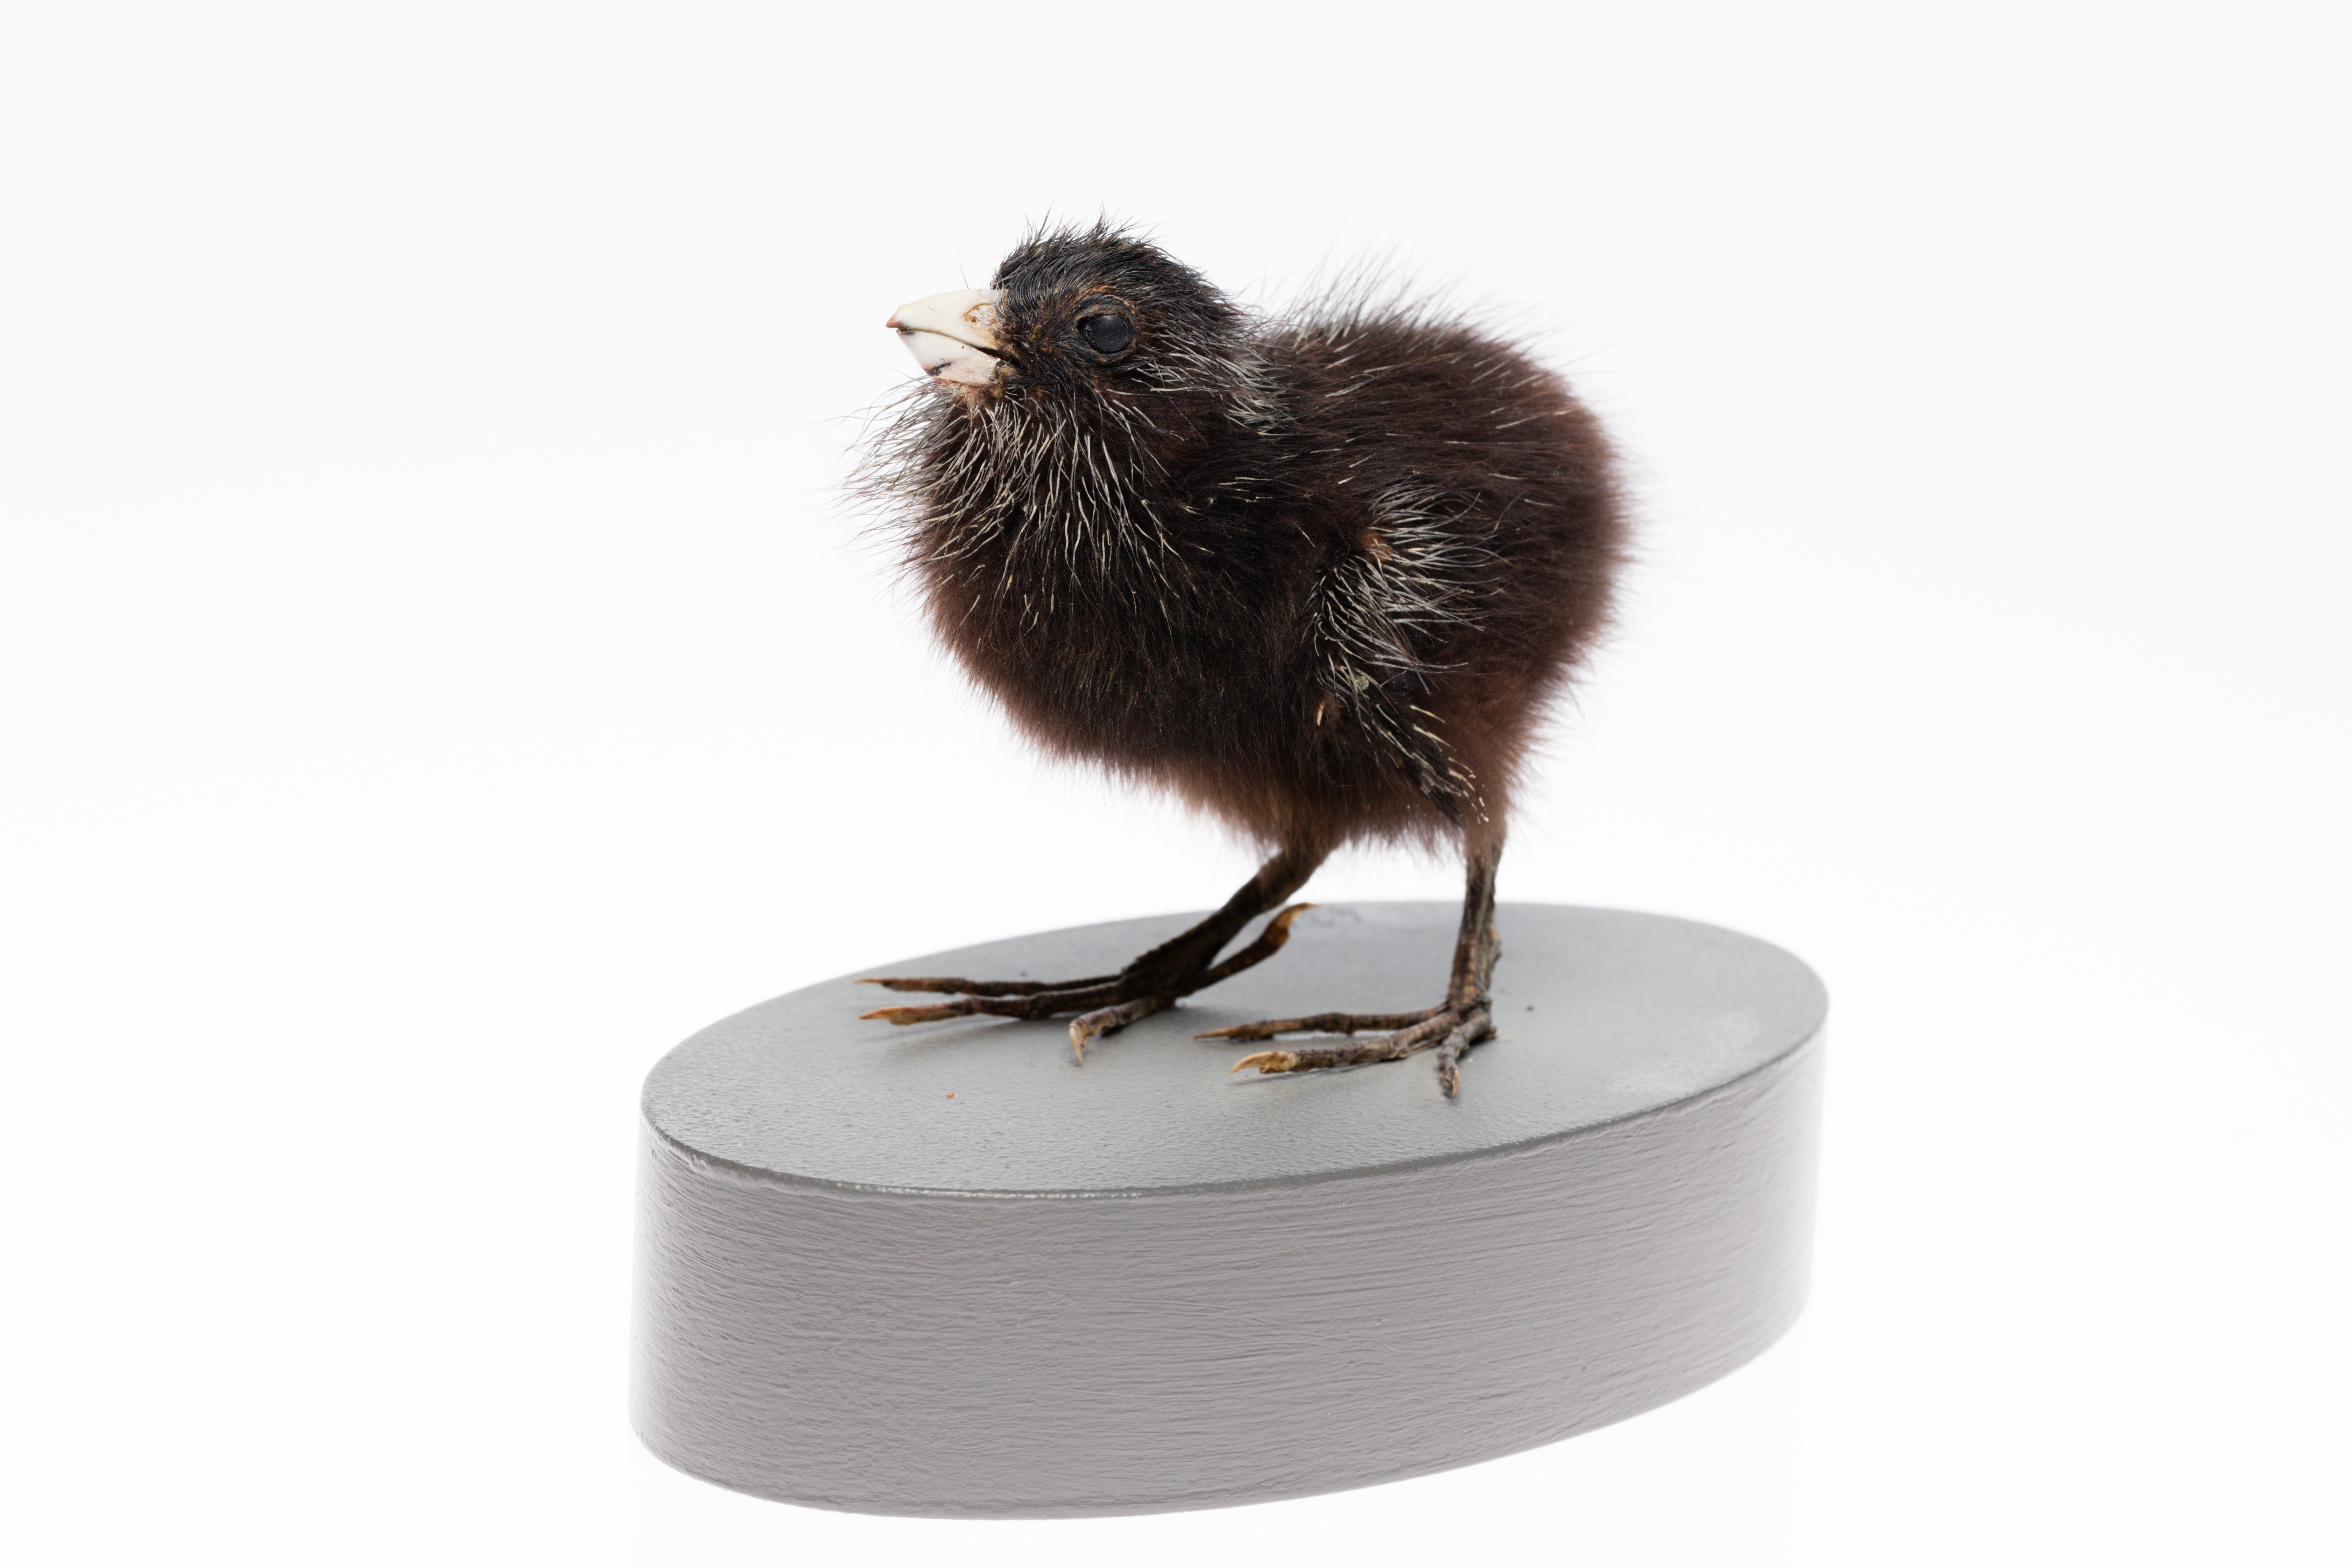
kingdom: Animalia
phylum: Chordata
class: Aves
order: Gruiformes
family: Rallidae
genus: Porphyrio
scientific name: Porphyrio melanotus
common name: Australasian swamphen
